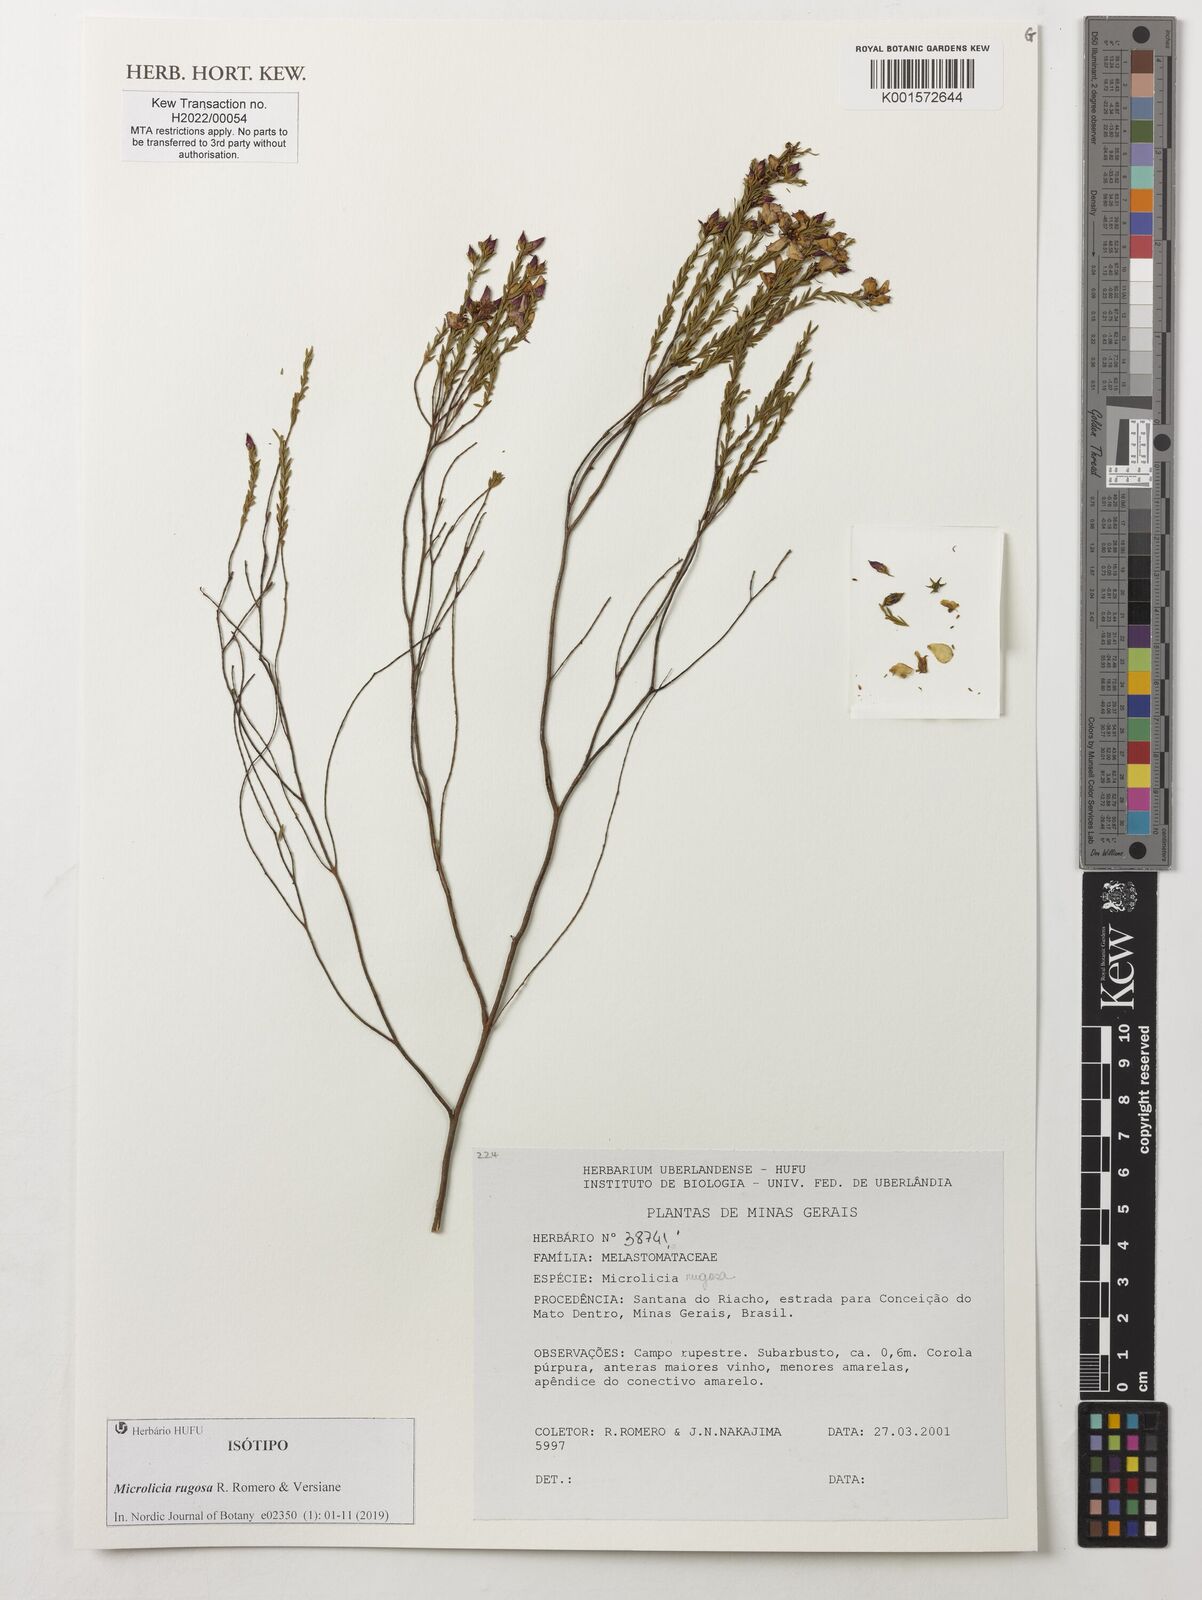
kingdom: Plantae
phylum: Tracheophyta
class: Magnoliopsida
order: Myrtales
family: Melastomataceae
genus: Microlicia
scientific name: Microlicia rugosa
